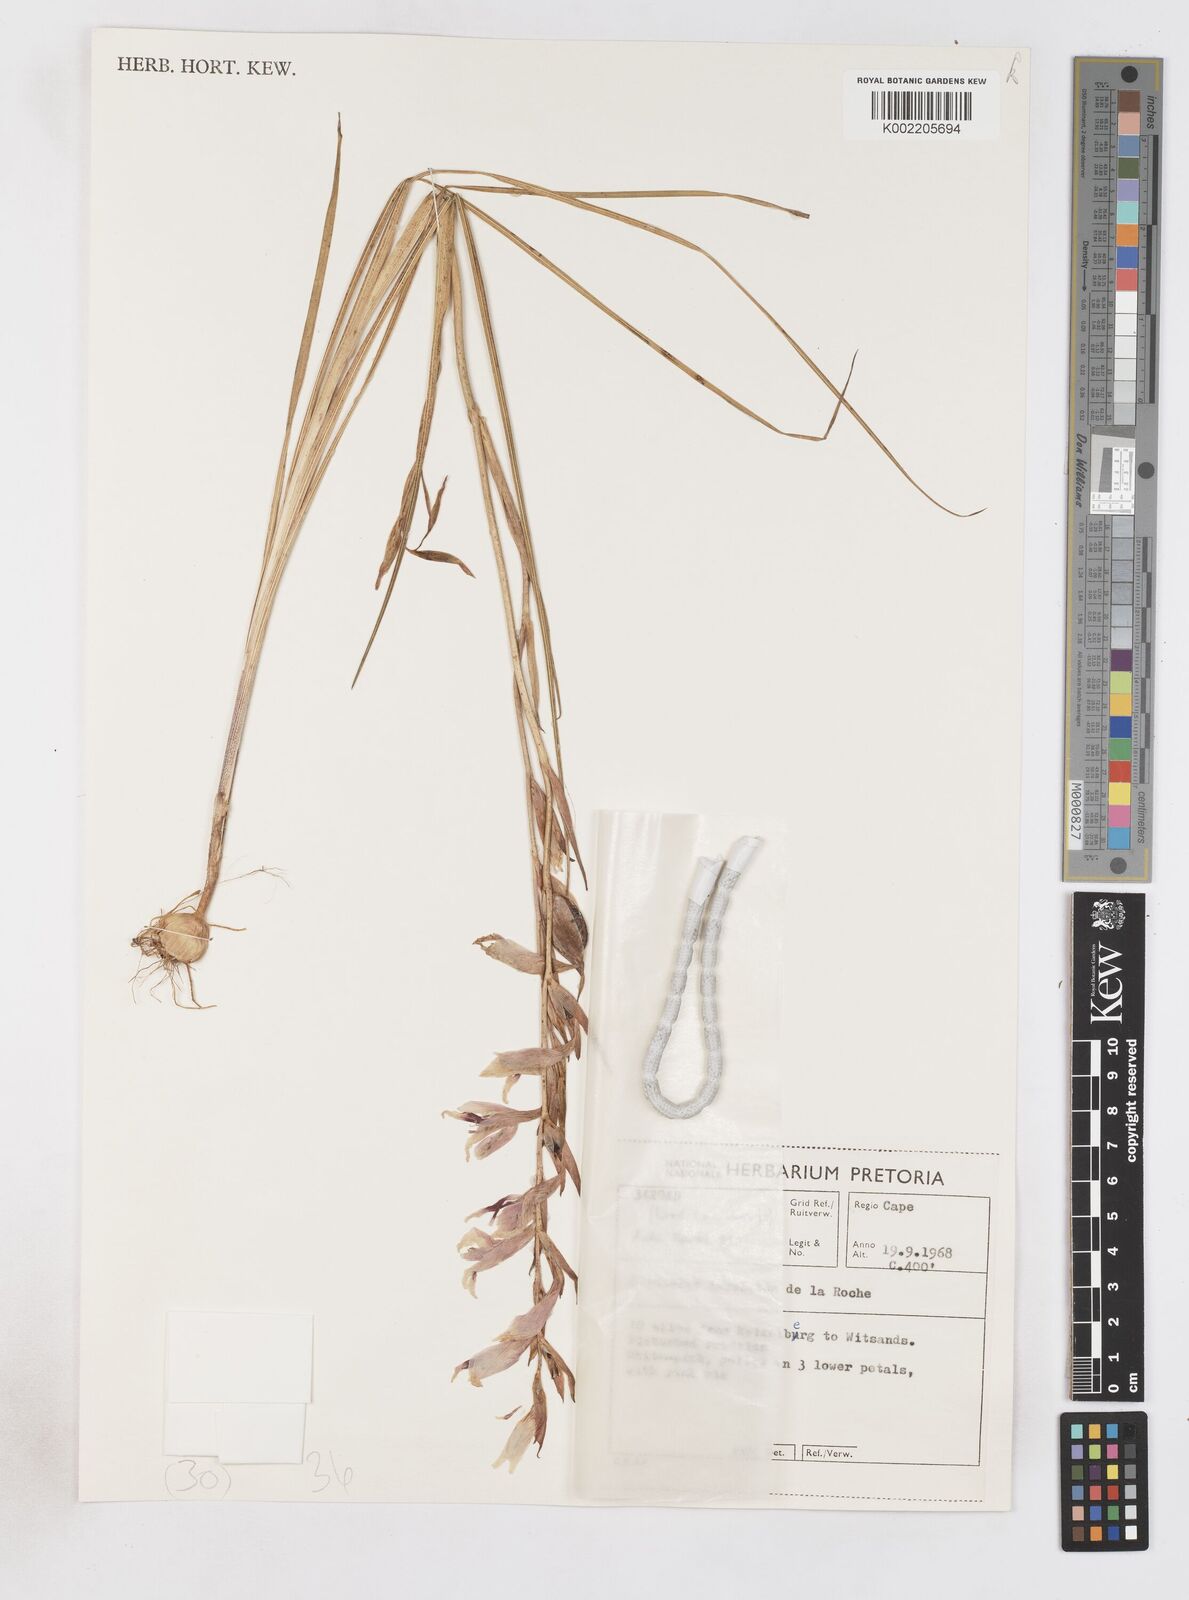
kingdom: Plantae
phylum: Tracheophyta
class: Liliopsida
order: Asparagales
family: Iridaceae
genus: Gladiolus
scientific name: Gladiolus involutus
